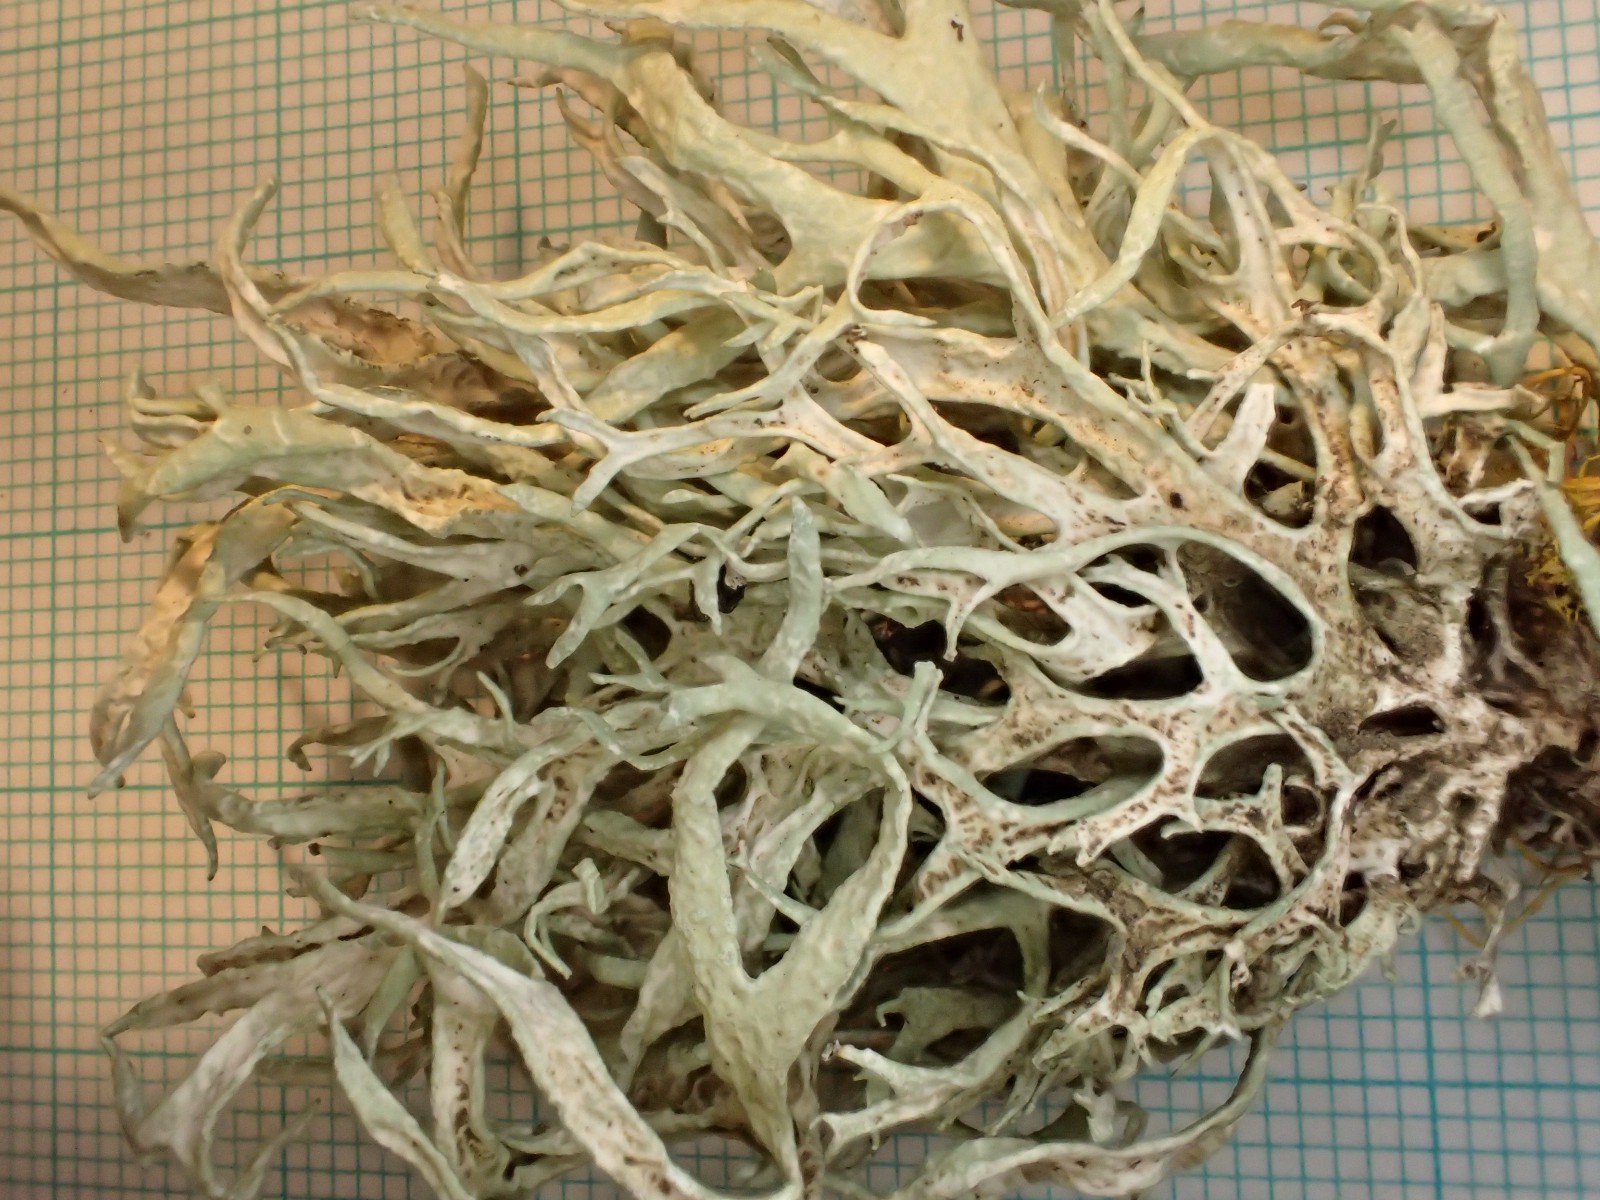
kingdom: Fungi
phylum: Ascomycota
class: Lecanoromycetes
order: Lecanorales
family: Parmeliaceae
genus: Evernia
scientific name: Evernia prunastri
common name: almindelig slåenlav
